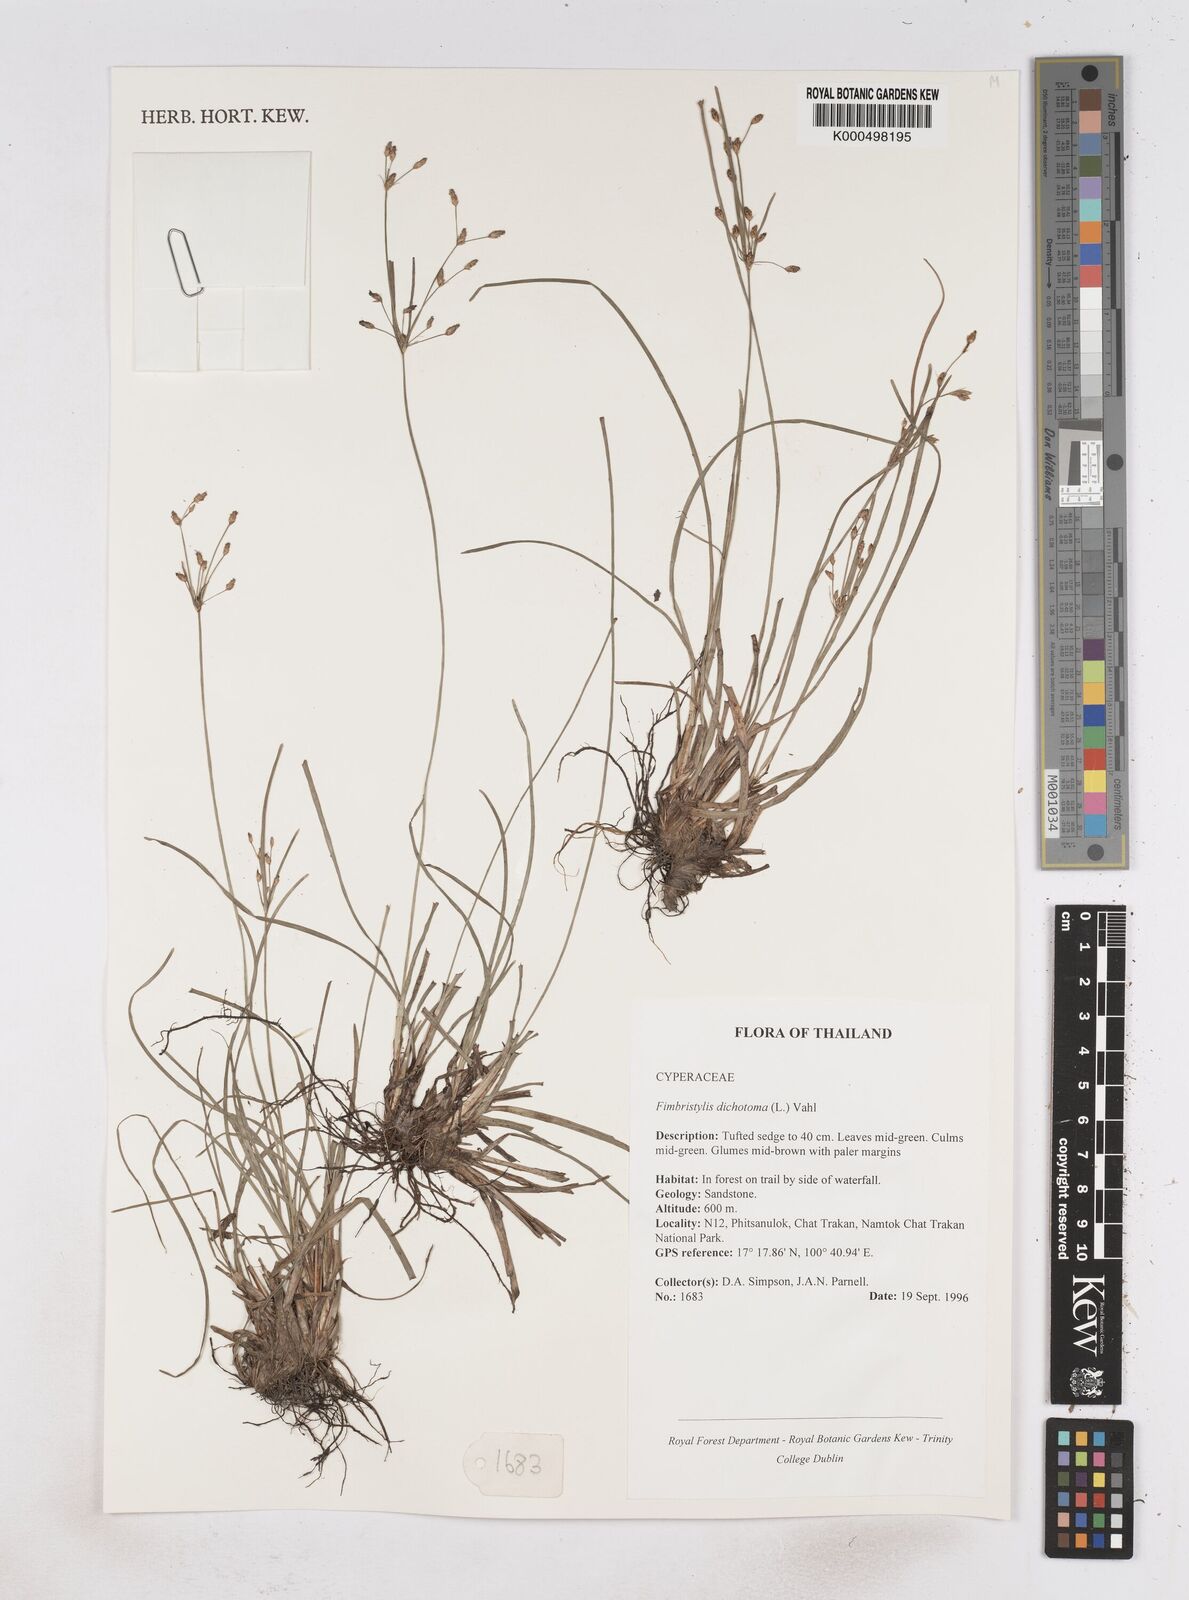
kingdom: Plantae
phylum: Tracheophyta
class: Liliopsida
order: Poales
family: Cyperaceae
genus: Fimbristylis
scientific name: Fimbristylis dichotoma
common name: Forked fimbry
